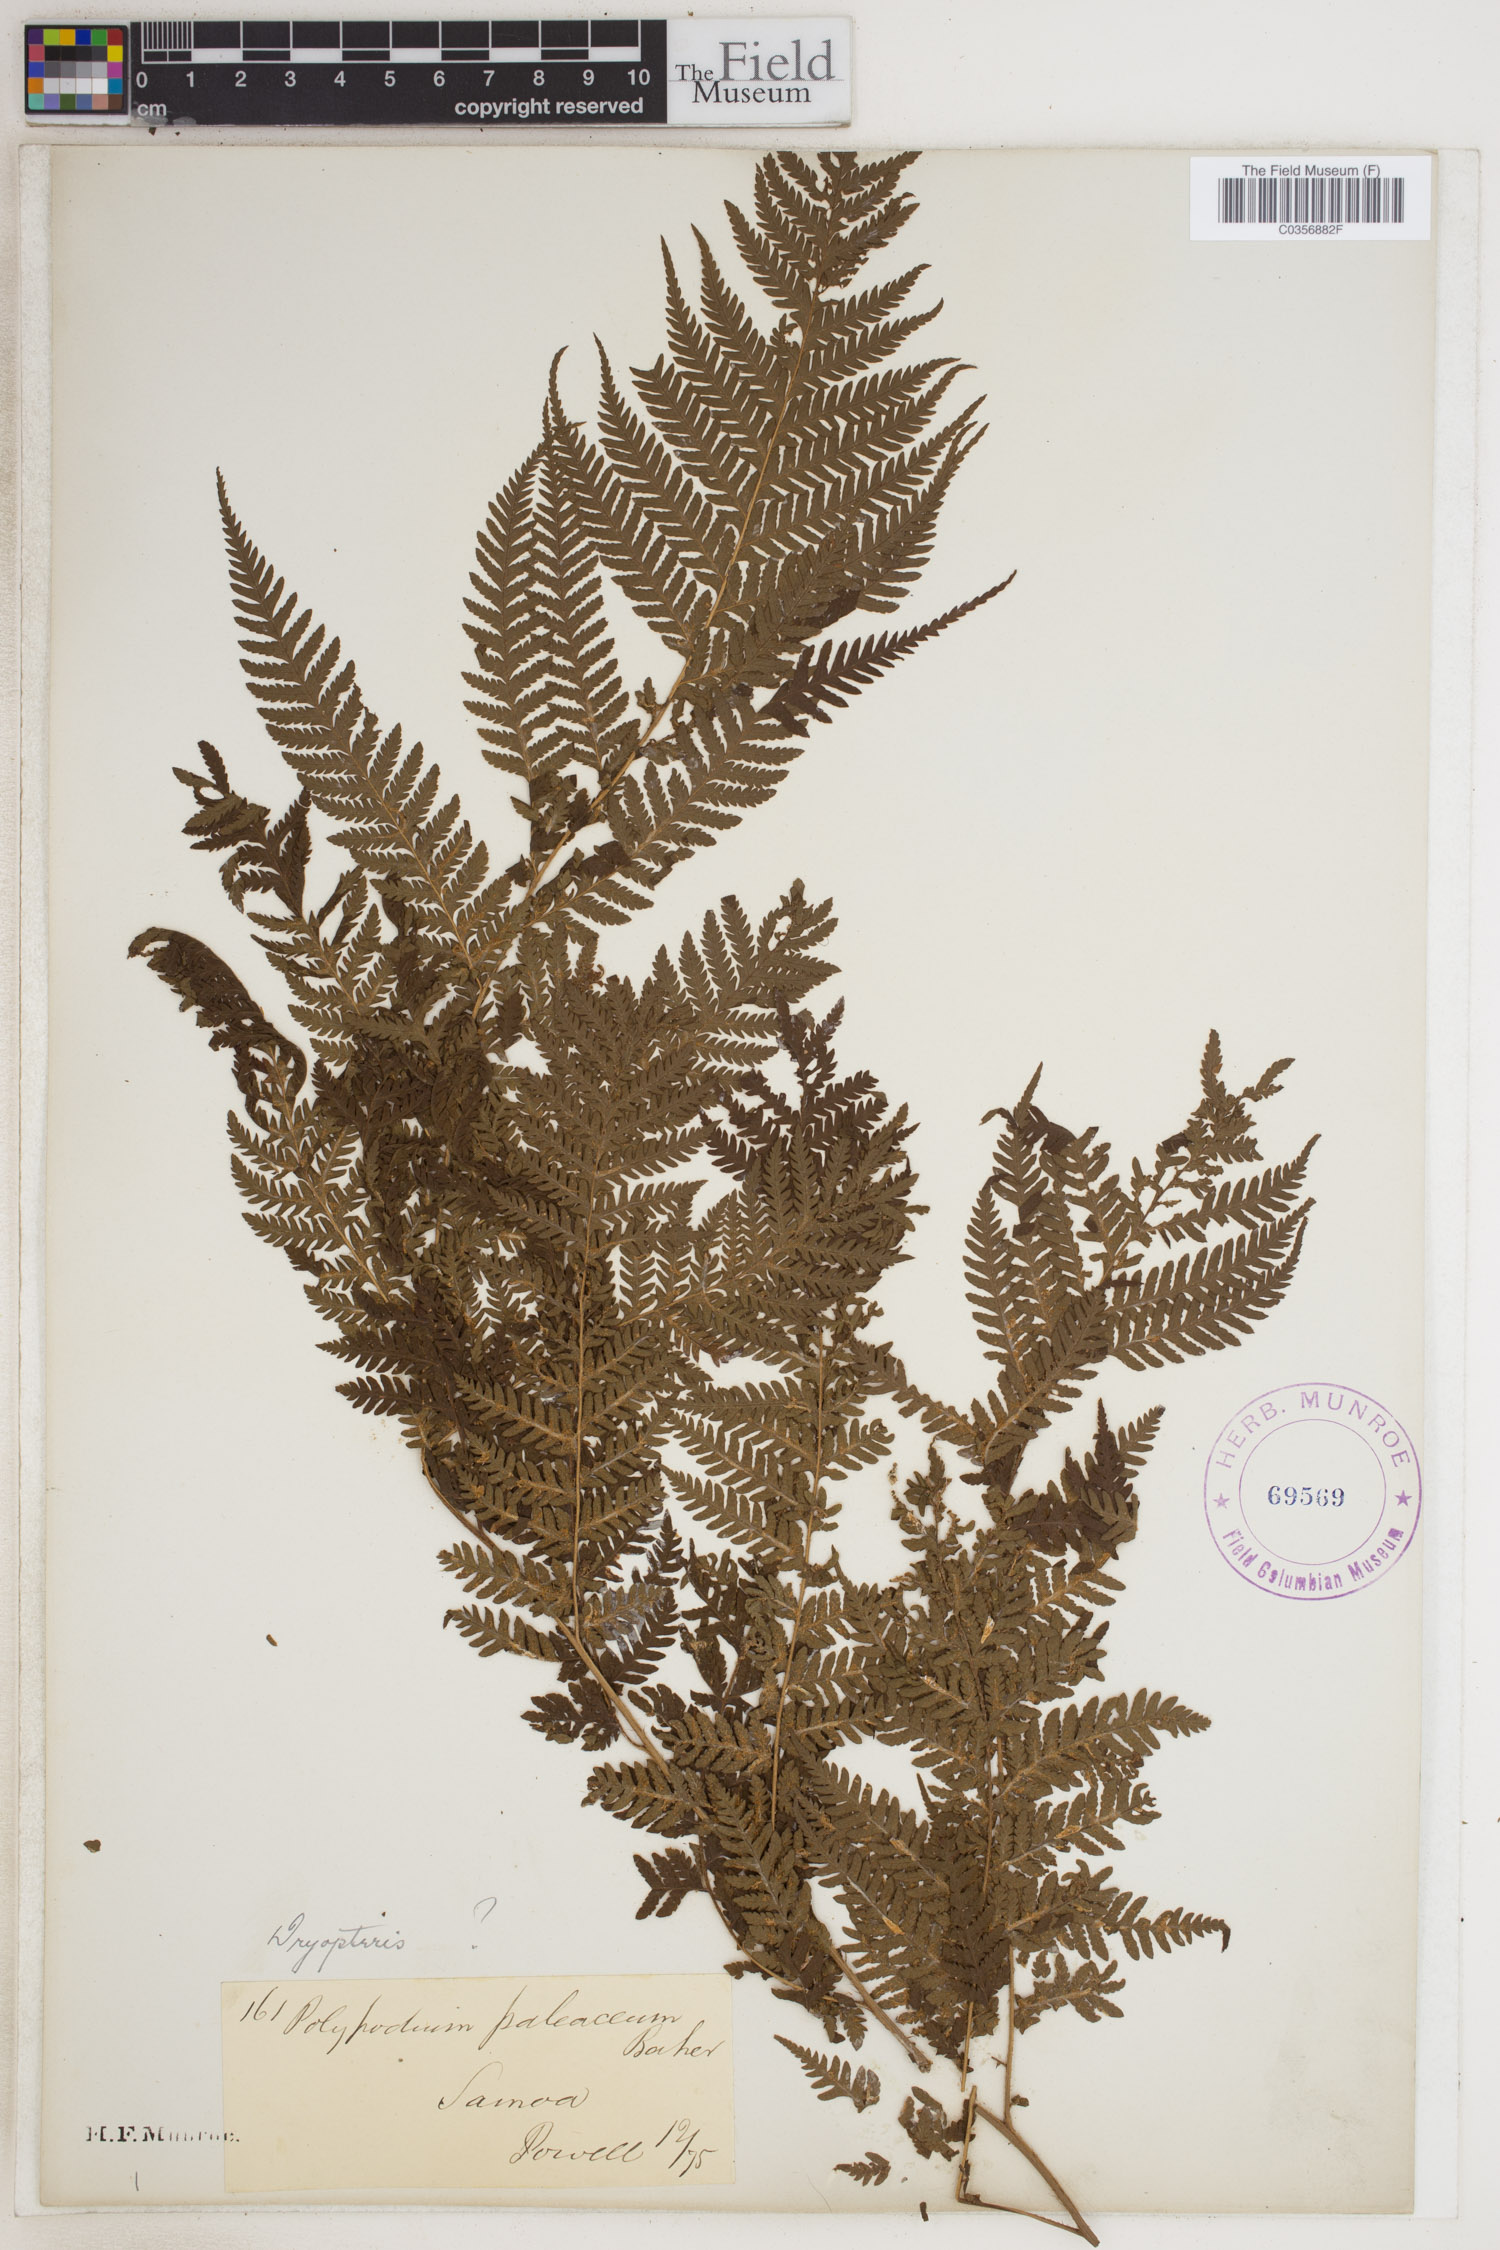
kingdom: Plantae
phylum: Tracheophyta
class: Polypodiopsida
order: Polypodiales
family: Dryopteridaceae
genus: Dryopteris
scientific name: Dryopteris wallichiana
